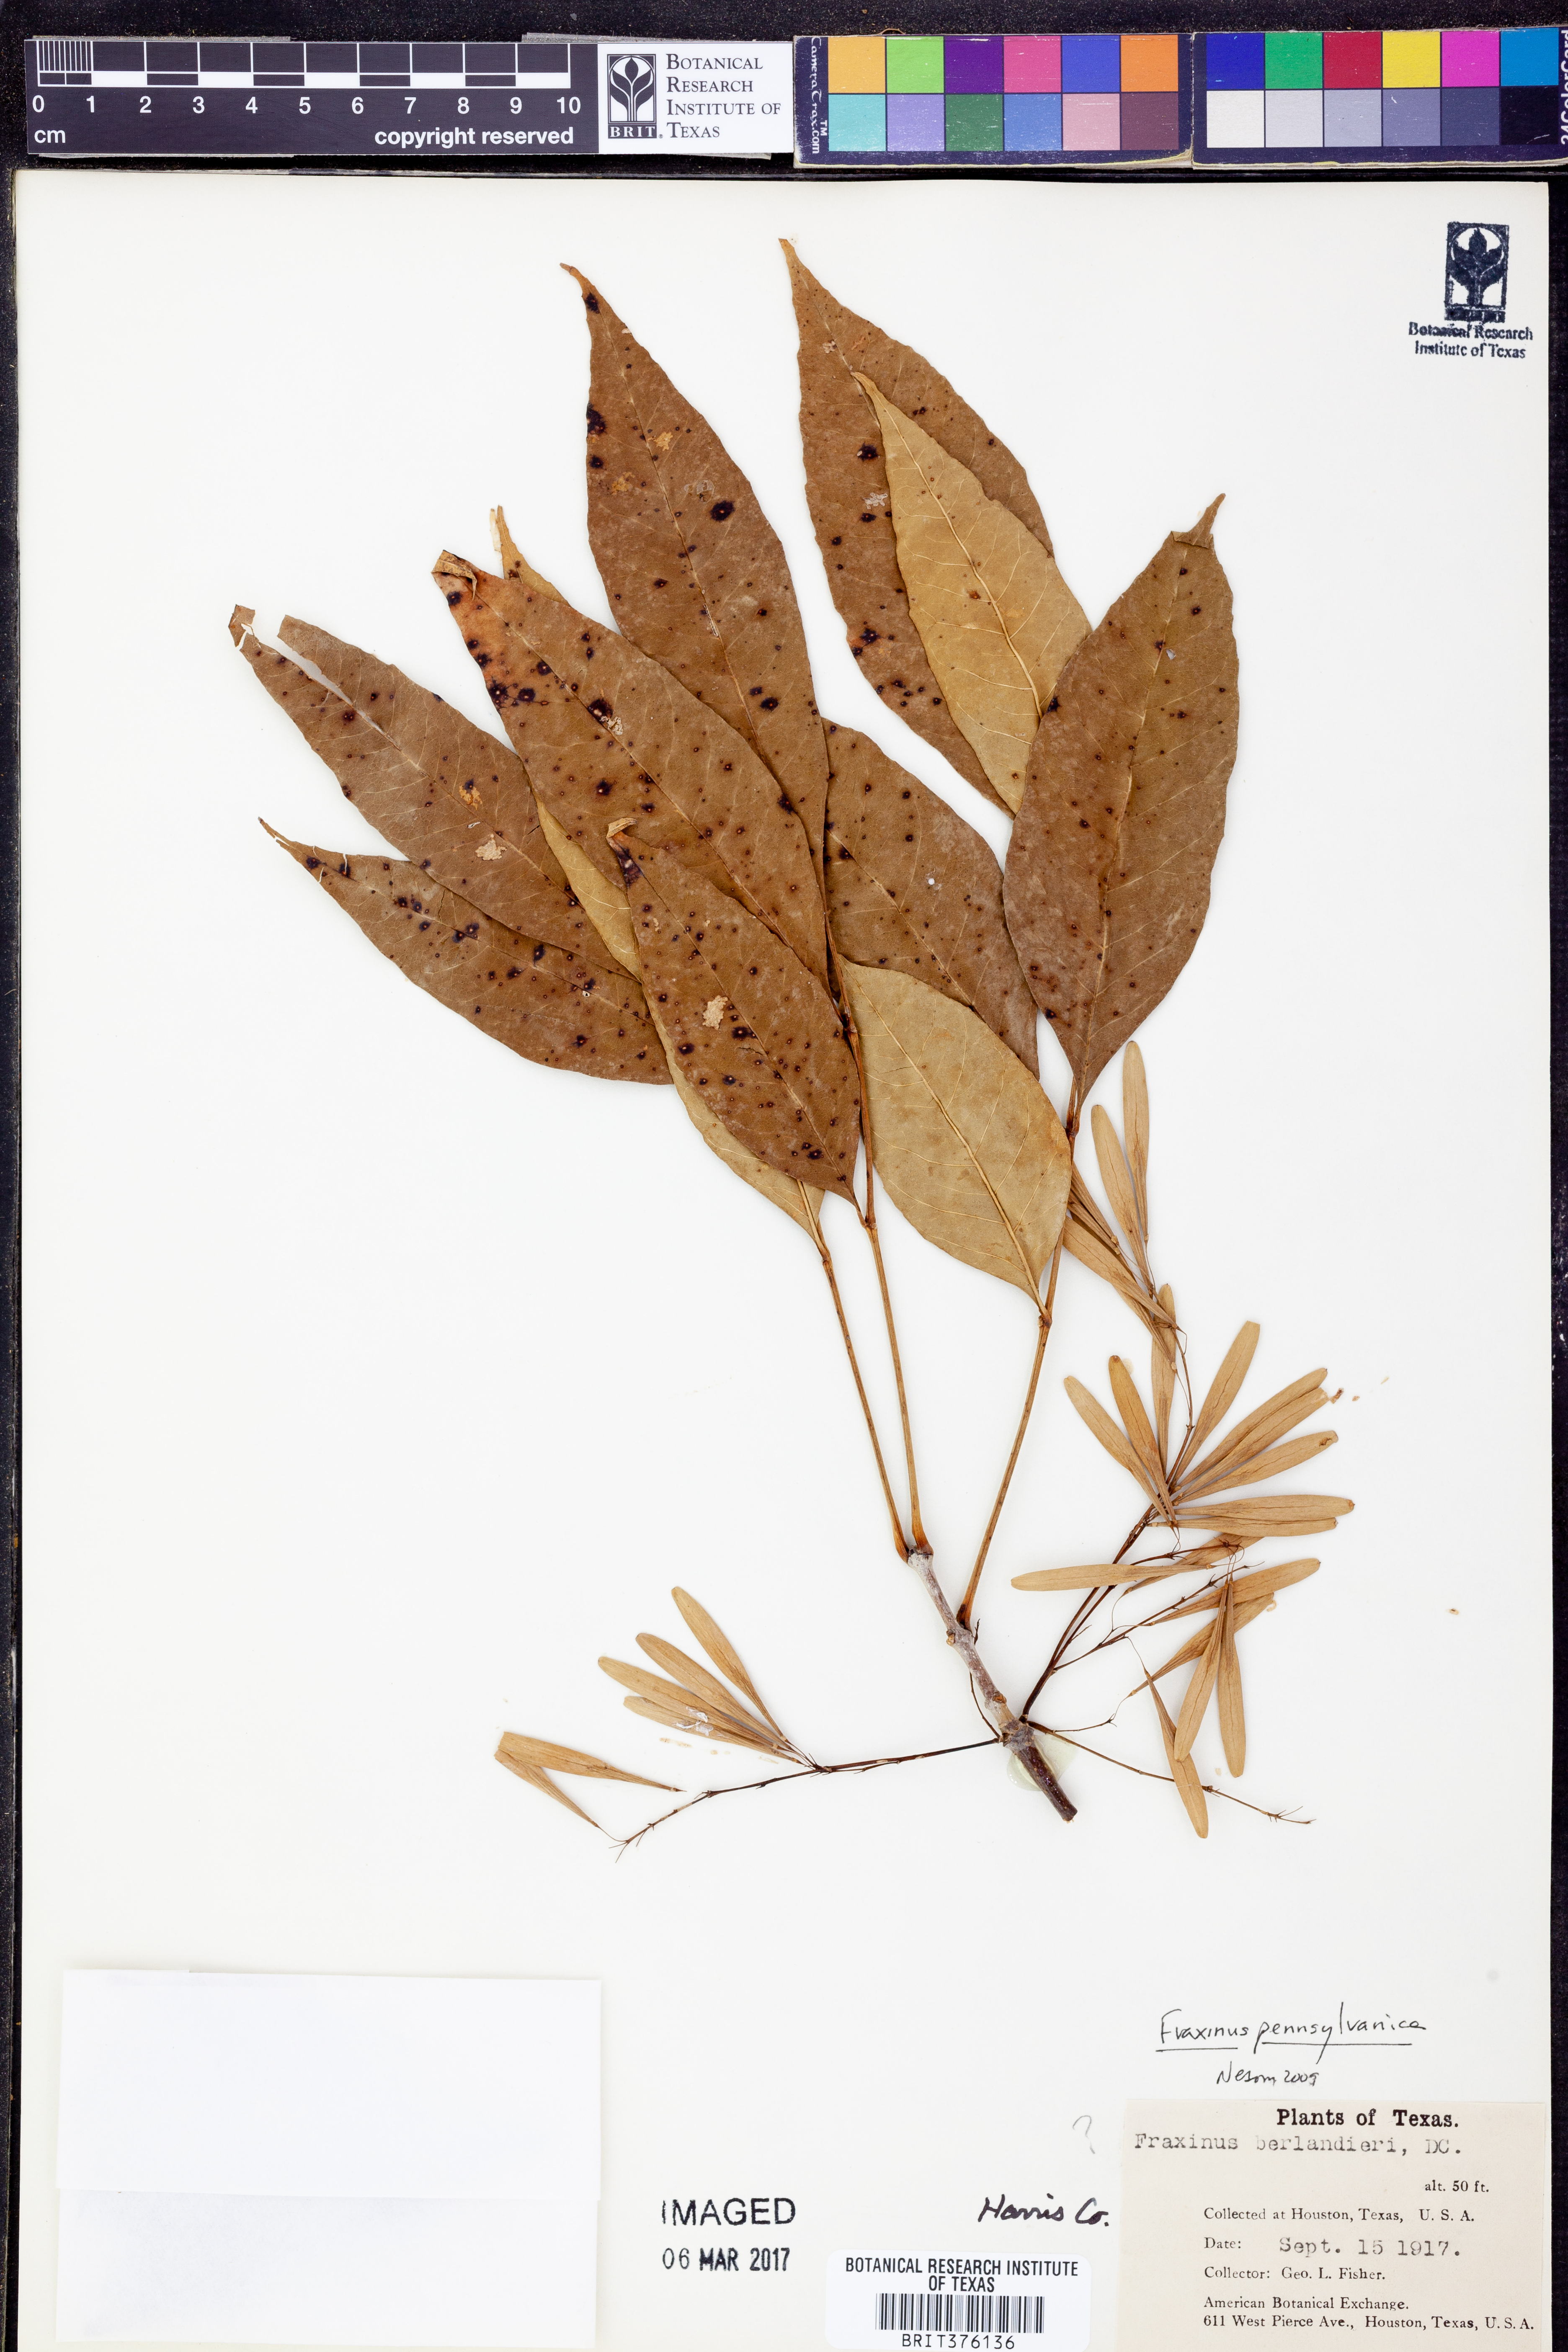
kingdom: Plantae
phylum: Tracheophyta
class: Magnoliopsida
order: Lamiales
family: Oleaceae
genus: Fraxinus
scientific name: Fraxinus pennsylvanica
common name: Green ash
